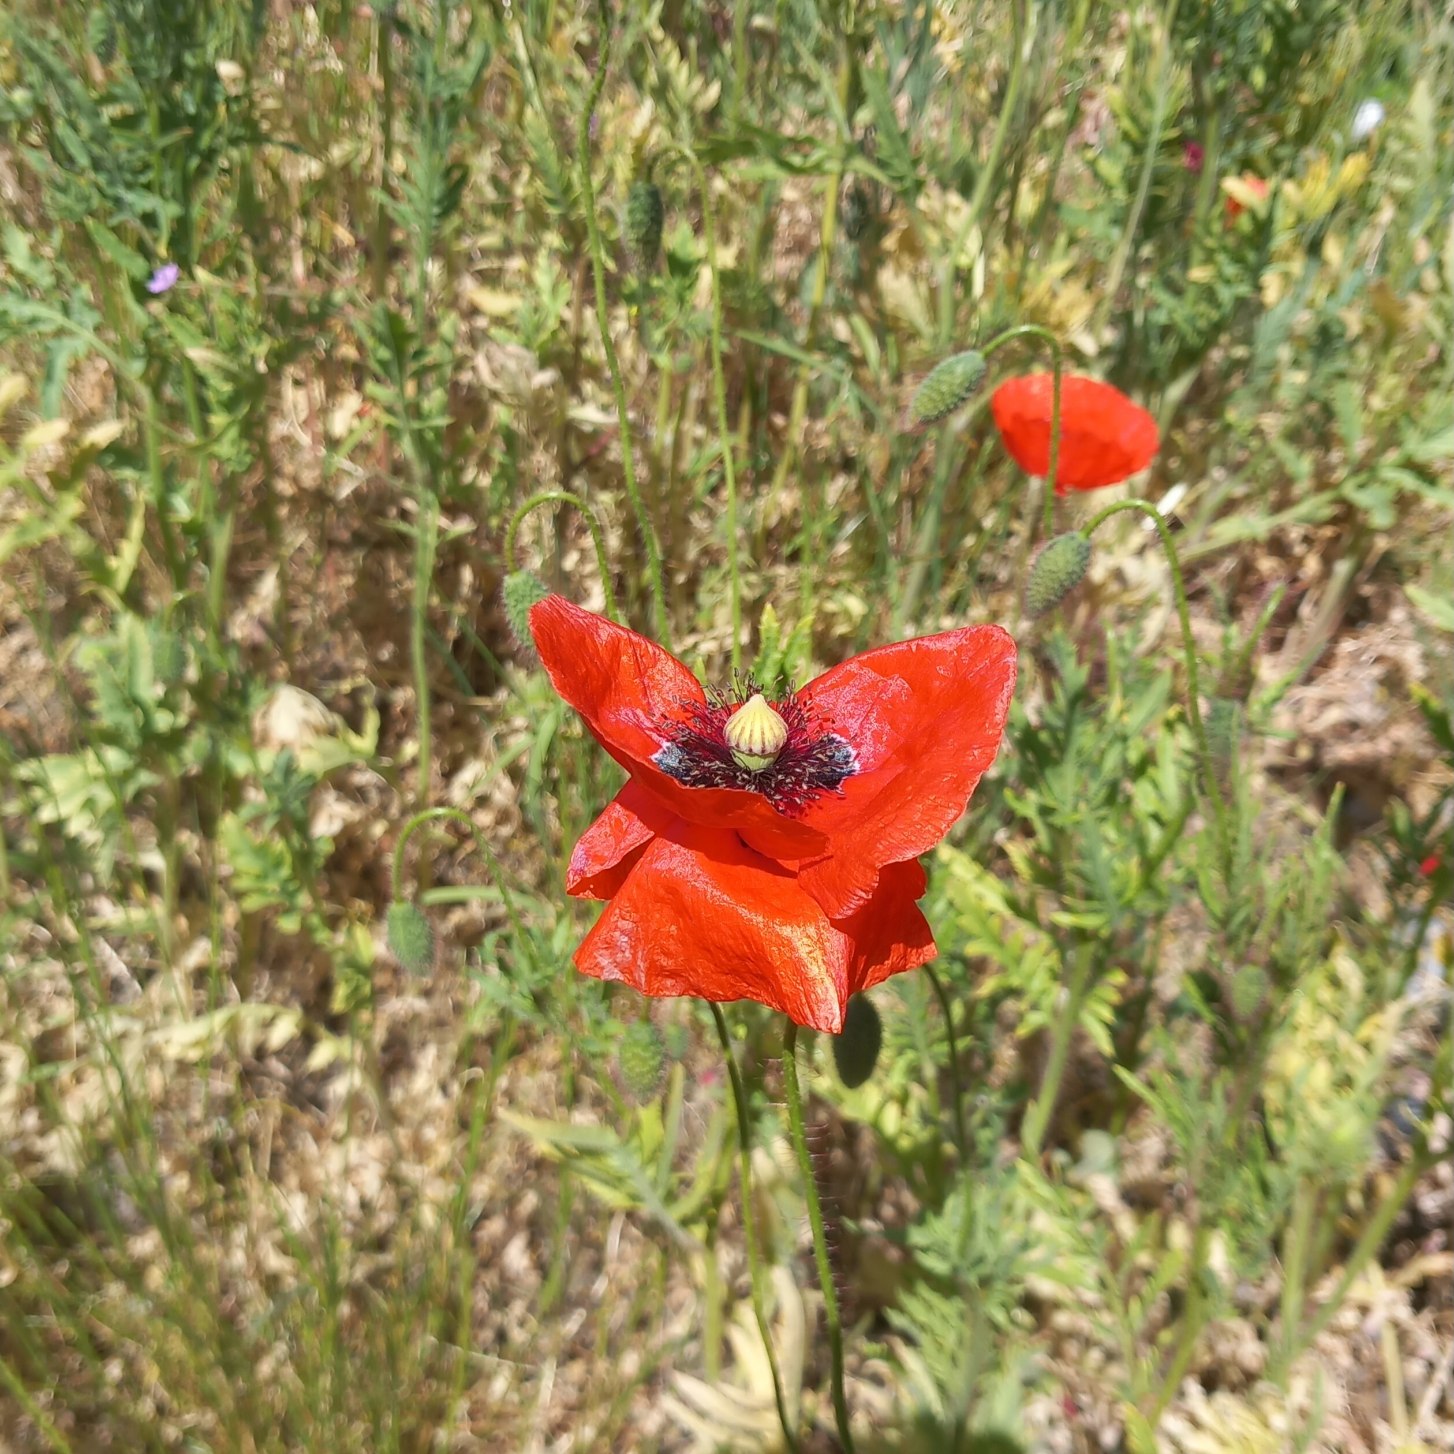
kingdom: Plantae
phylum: Tracheophyta
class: Magnoliopsida
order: Ranunculales
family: Papaveraceae
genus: Papaver
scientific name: Papaver rhoeas
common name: Korn-valmue
